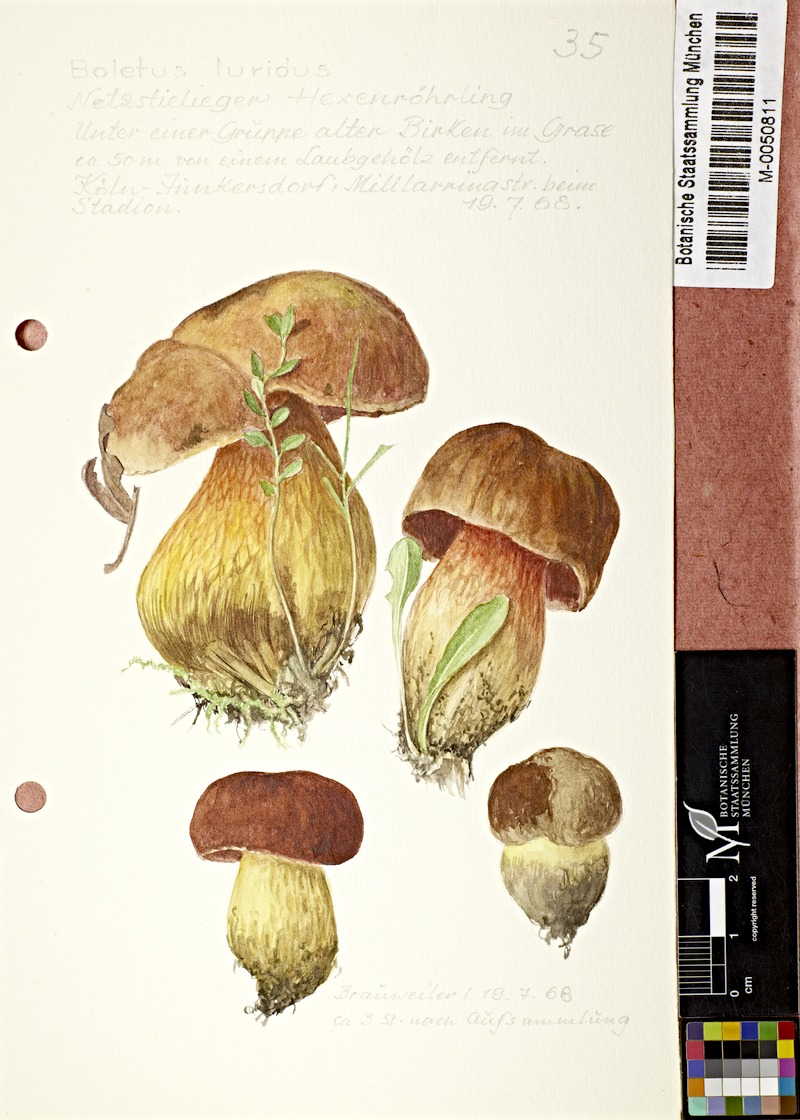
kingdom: Fungi
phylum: Basidiomycota
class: Agaricomycetes
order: Boletales
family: Boletaceae
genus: Suillellus
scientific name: Suillellus luridus
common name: Lurid bolete
